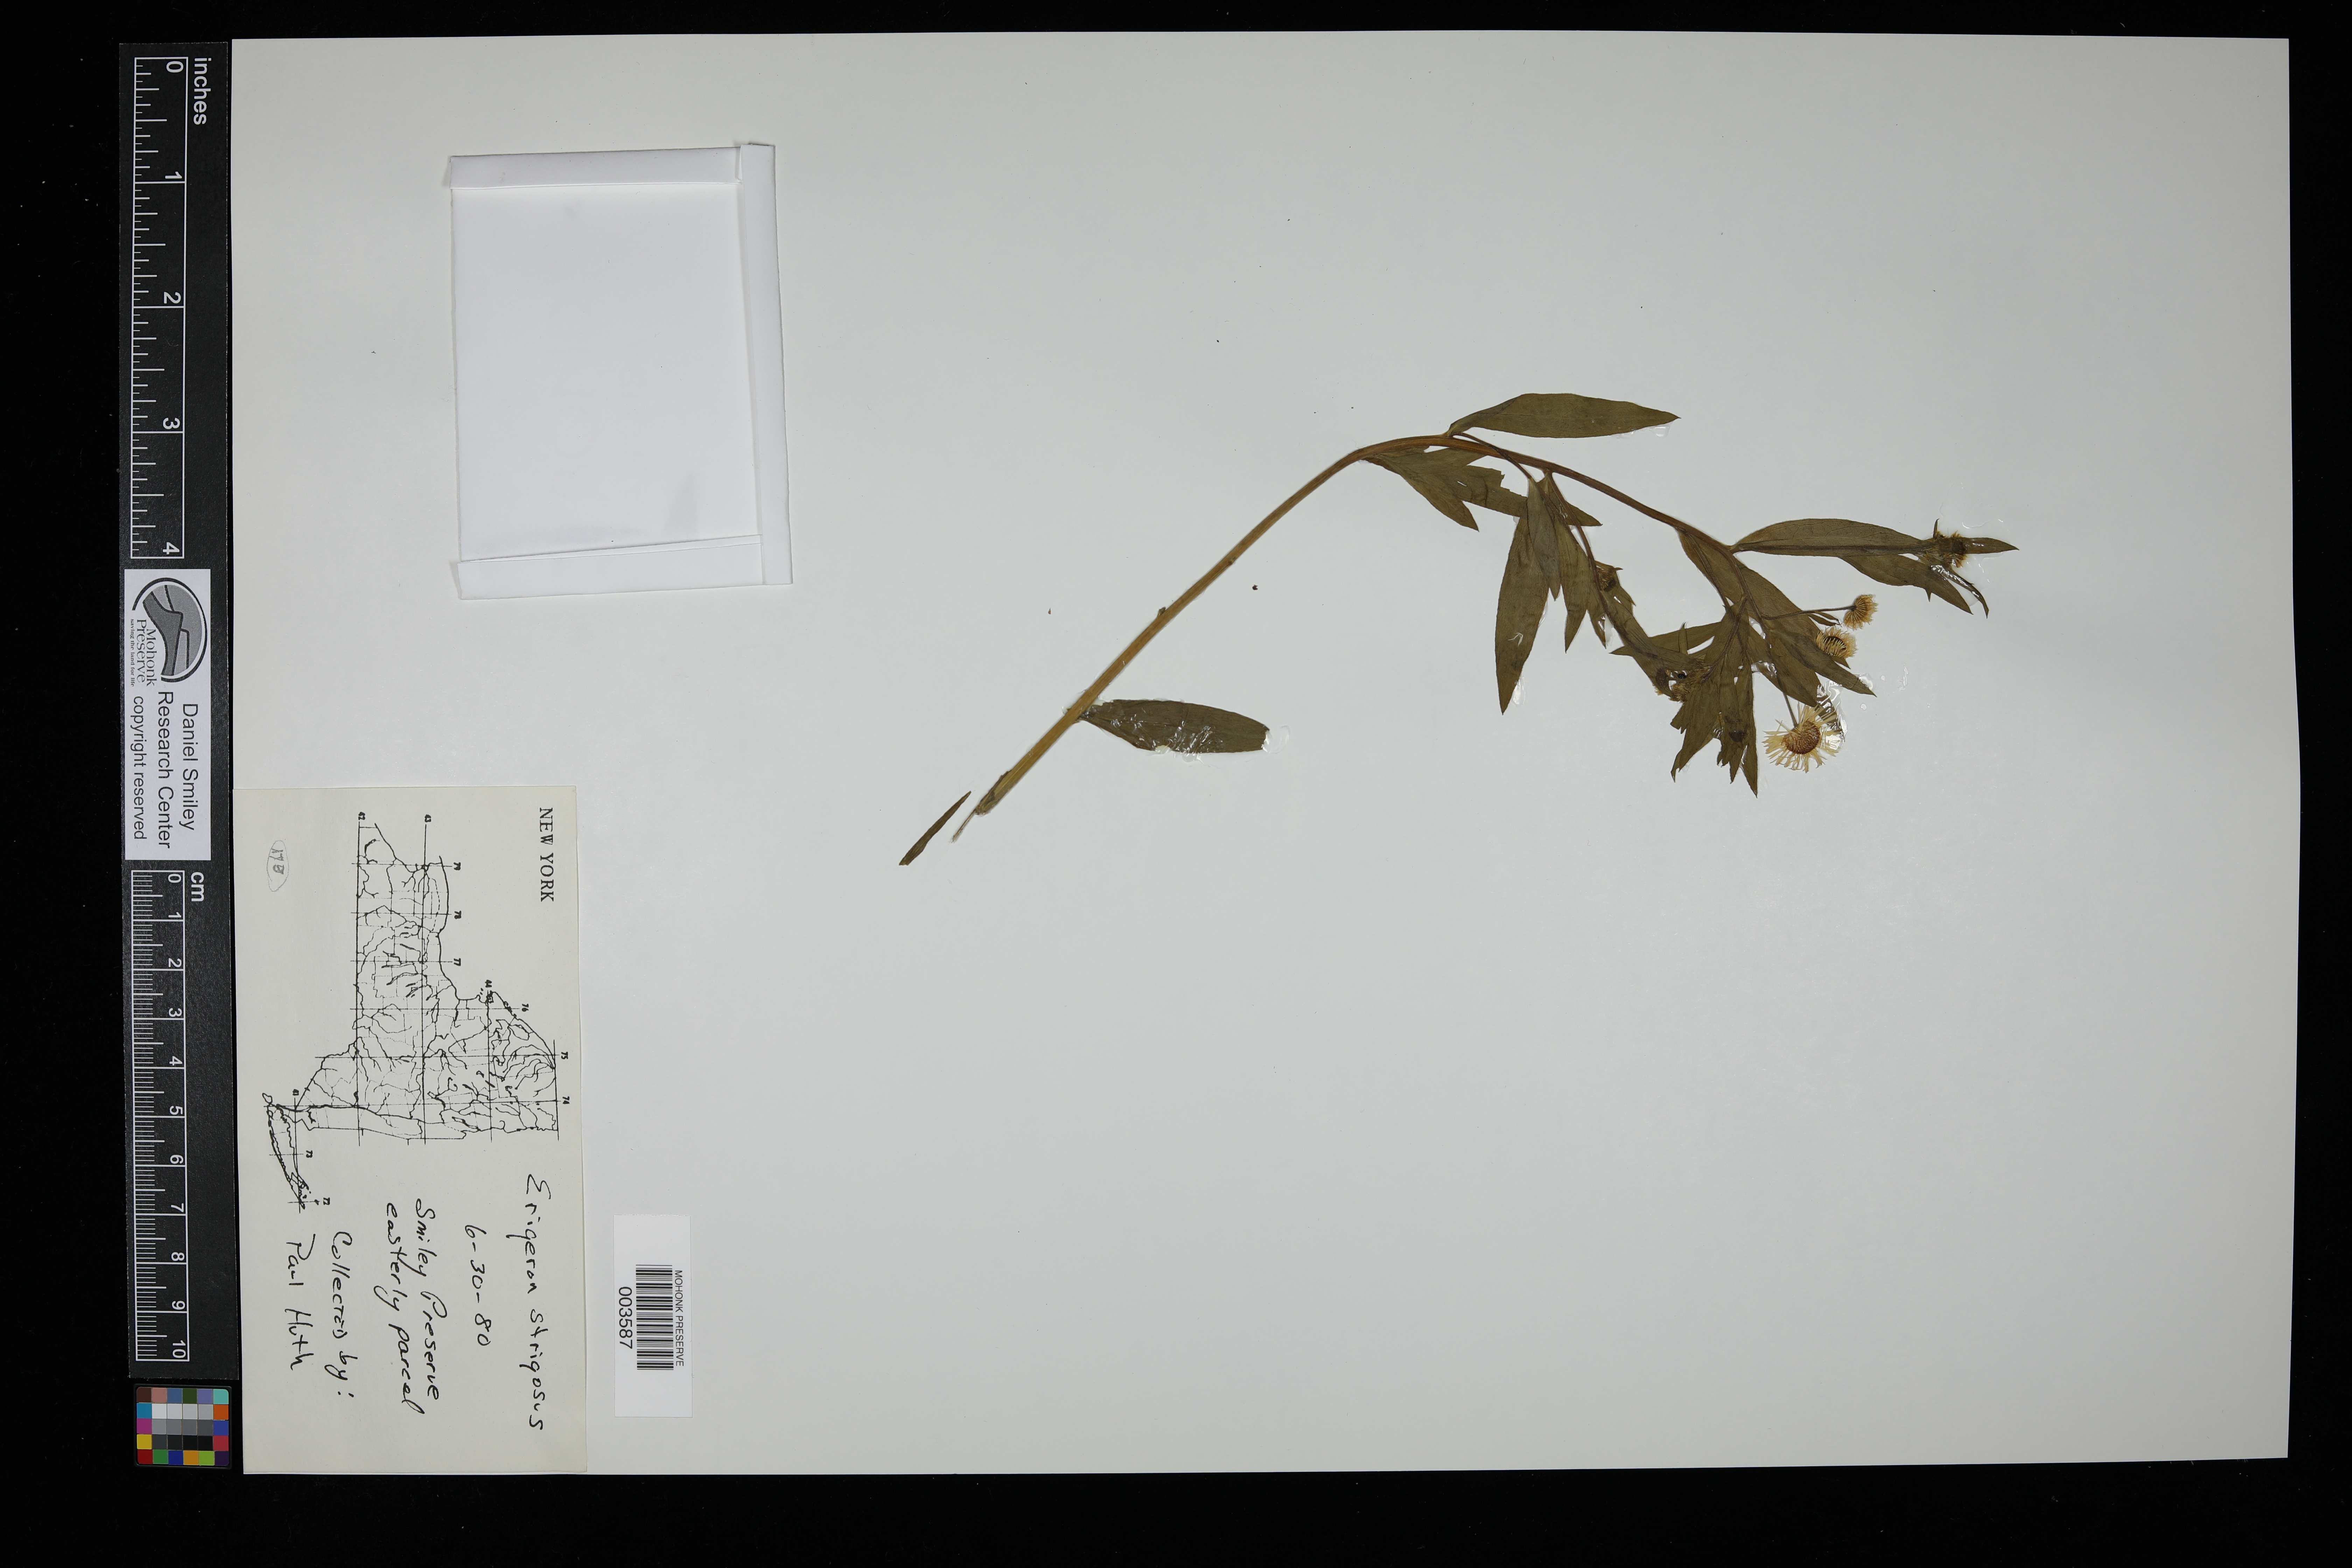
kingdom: Plantae
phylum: Tracheophyta
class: Magnoliopsida
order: Asterales
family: Asteraceae
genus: Erigeron
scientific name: Erigeron strigosus
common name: Common eastern fleabane
